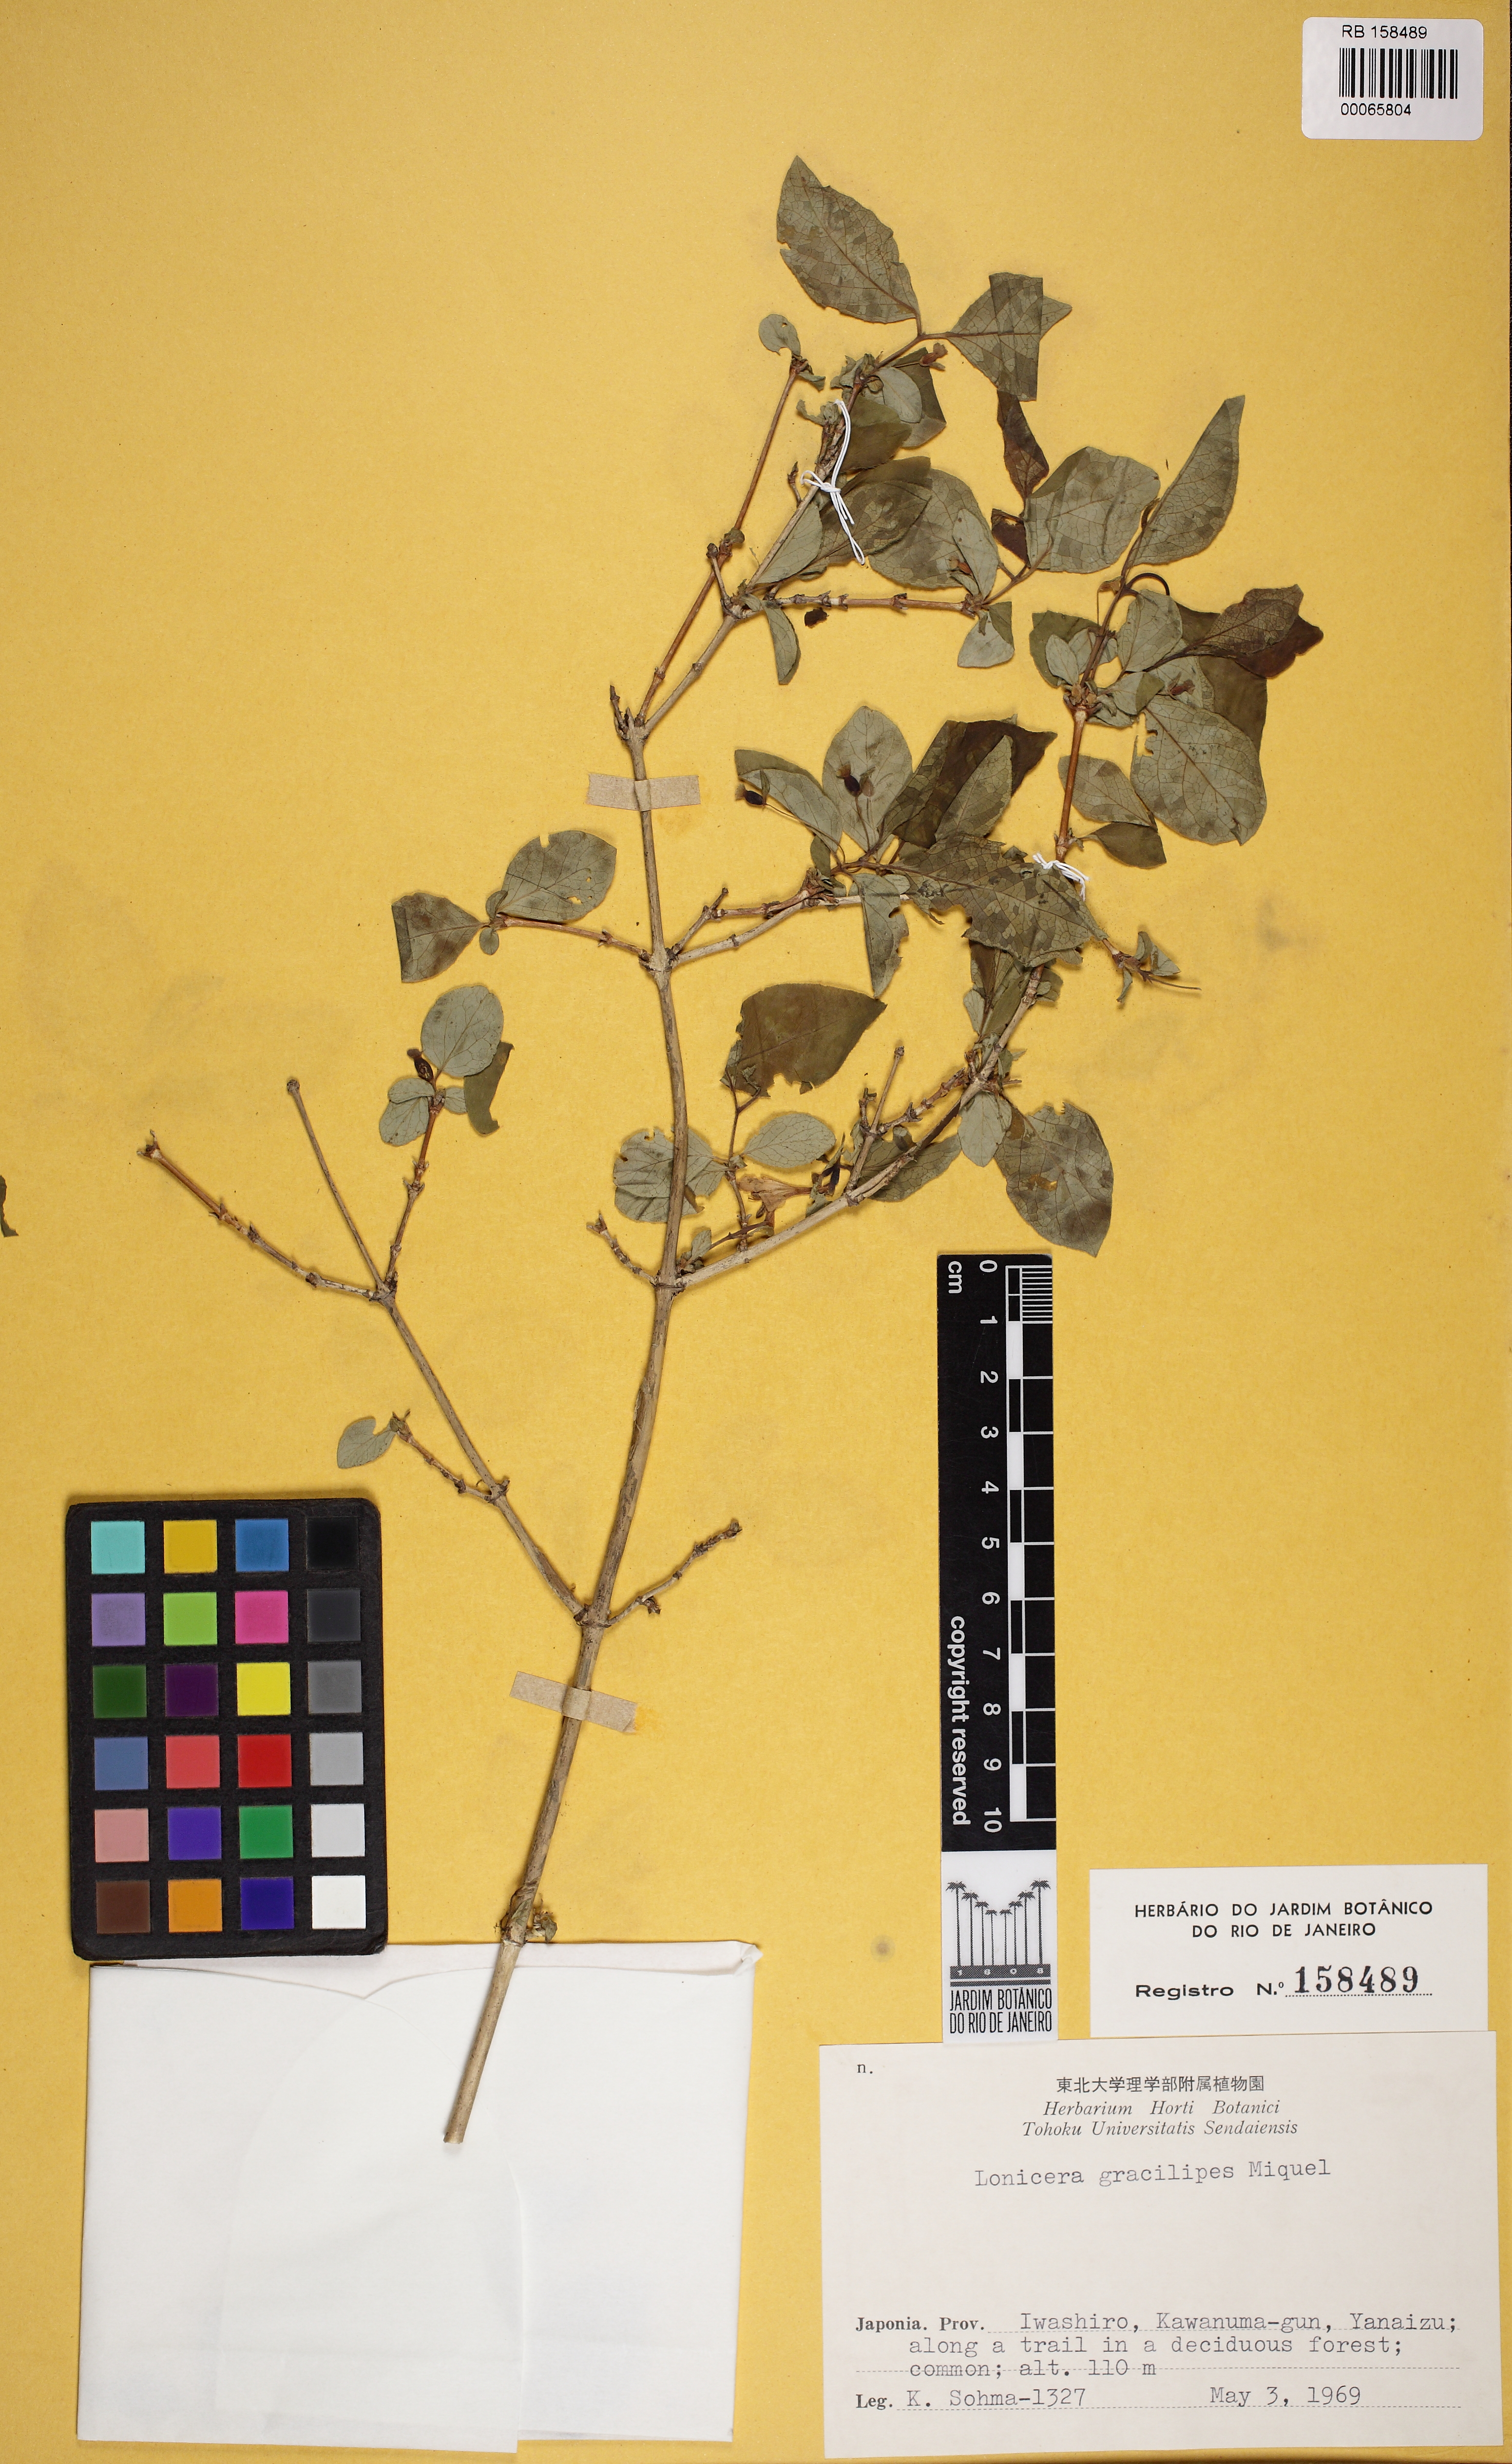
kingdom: Plantae
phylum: Tracheophyta
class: Magnoliopsida
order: Dipsacales
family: Caprifoliaceae
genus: Lonicera
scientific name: Lonicera gracilipes
